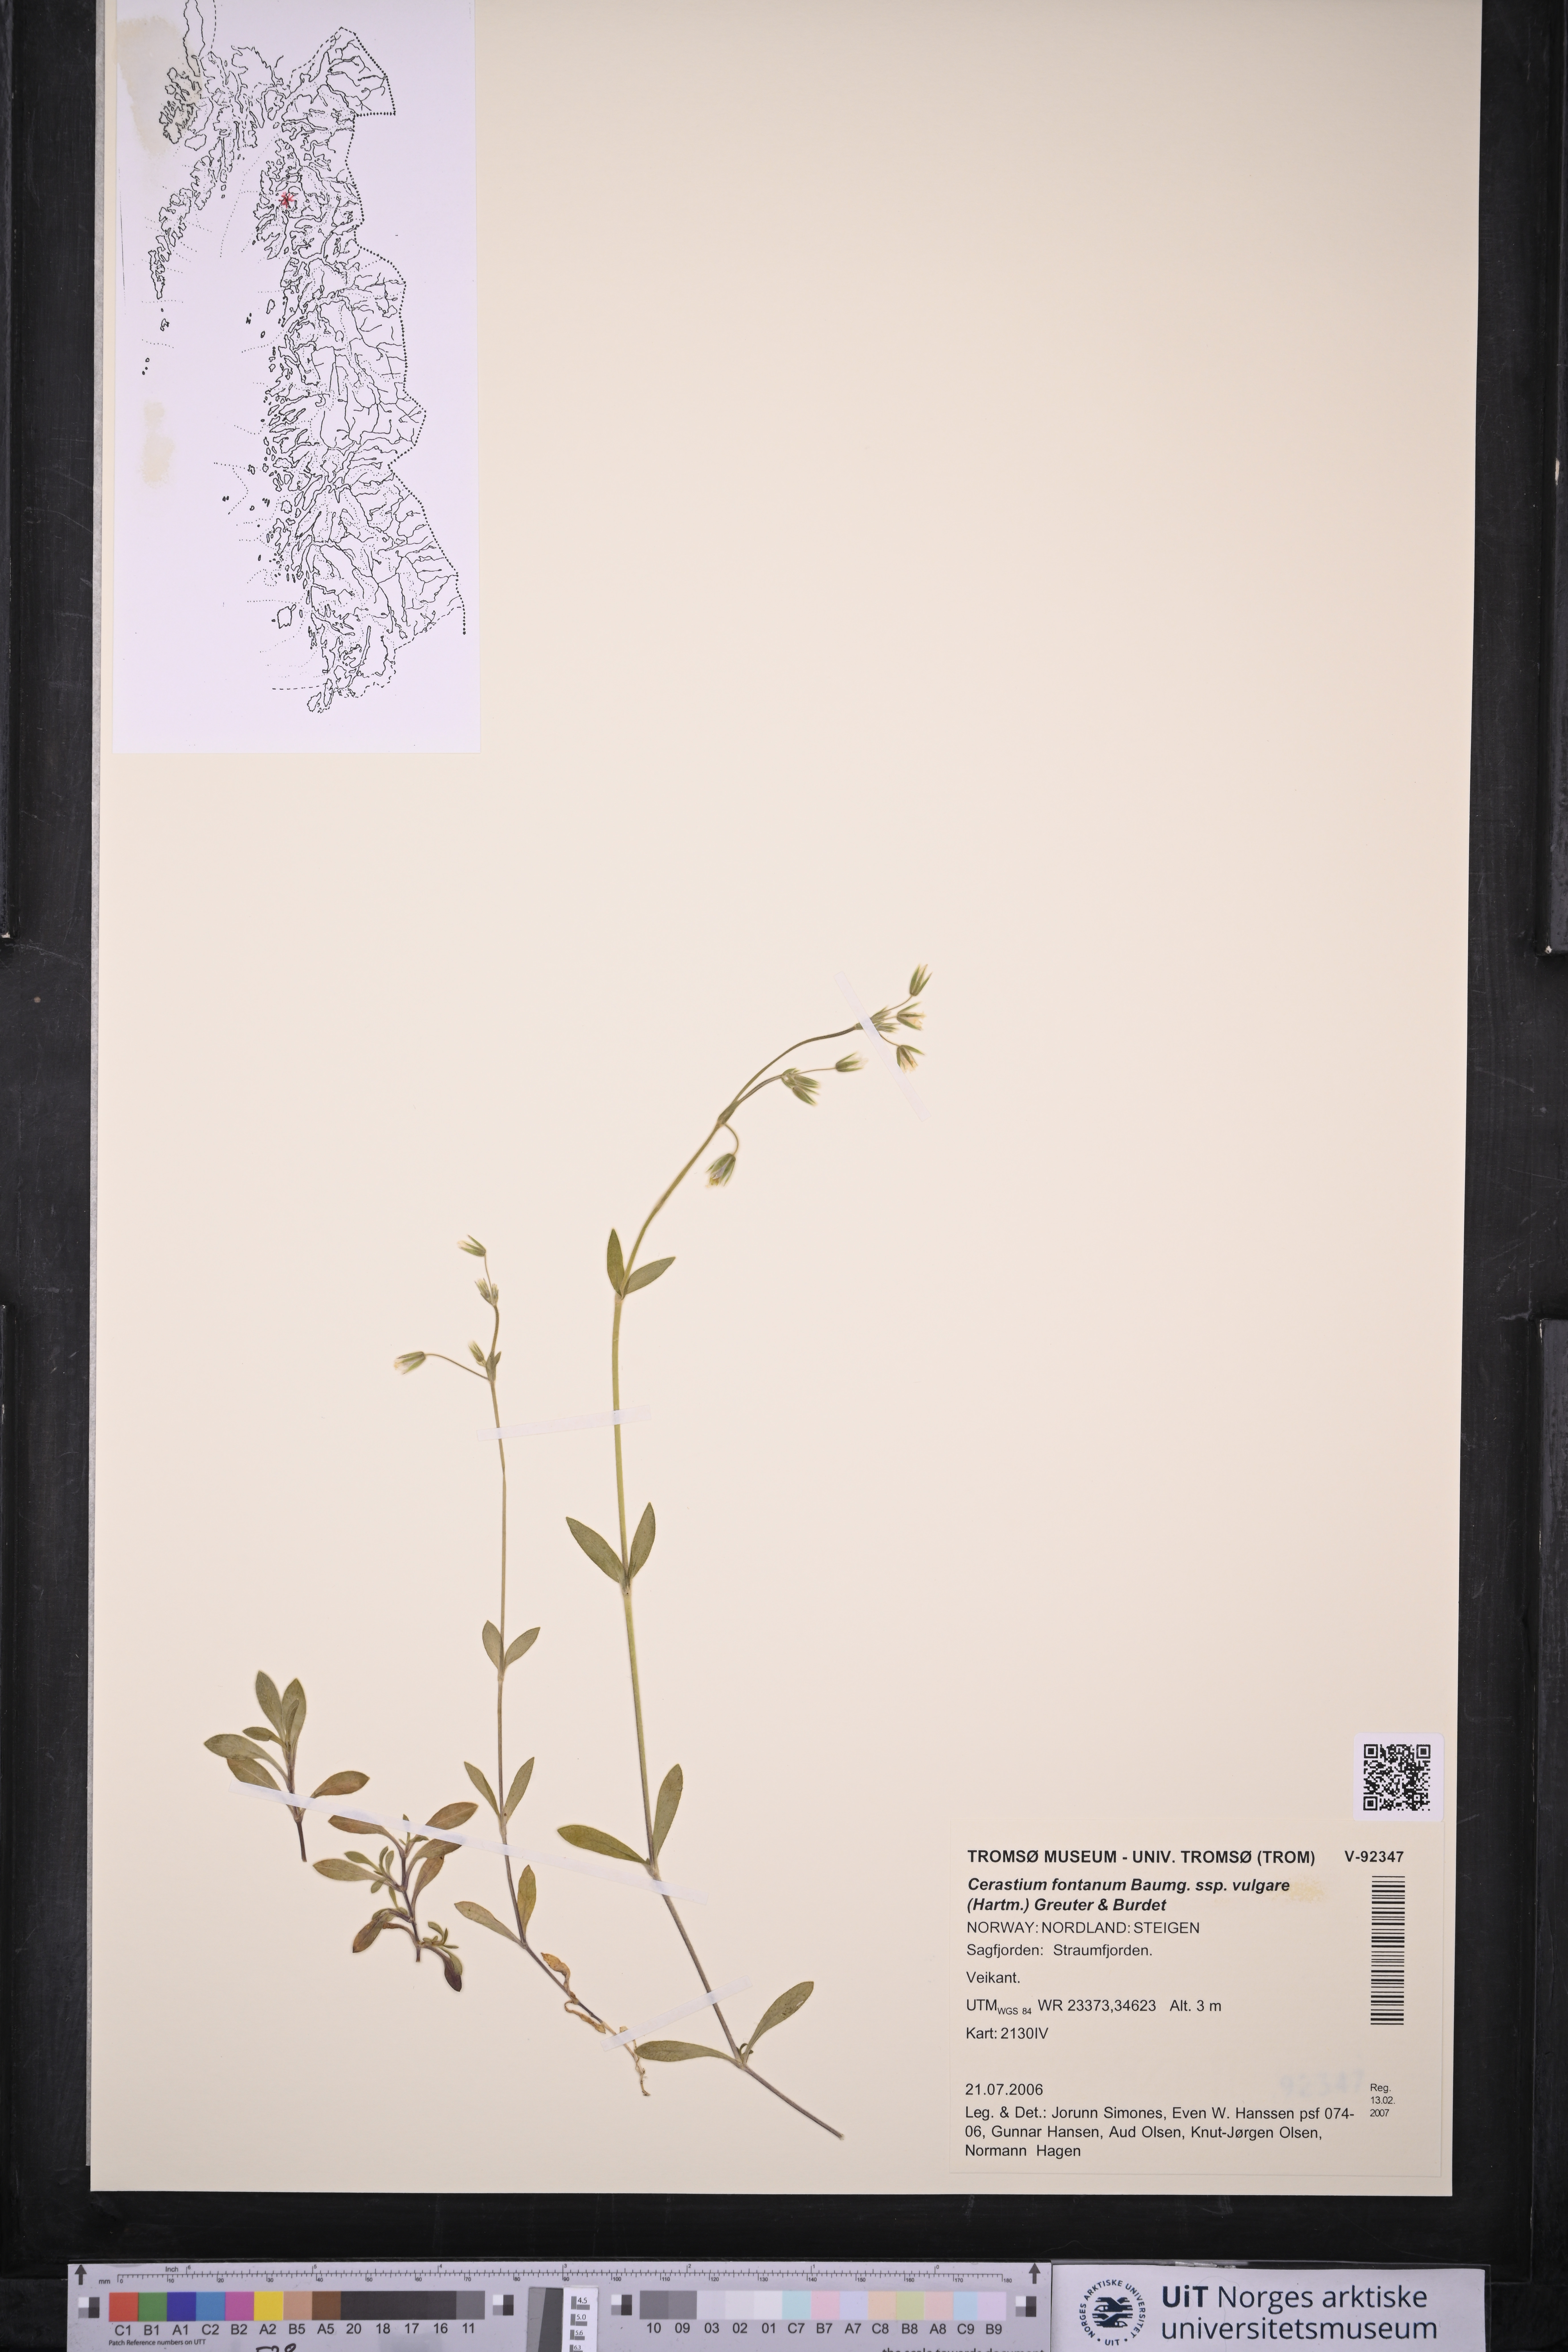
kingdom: Plantae
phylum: Tracheophyta
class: Magnoliopsida
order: Caryophyllales
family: Caryophyllaceae
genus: Cerastium
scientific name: Cerastium holosteoides
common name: Big chickweed
